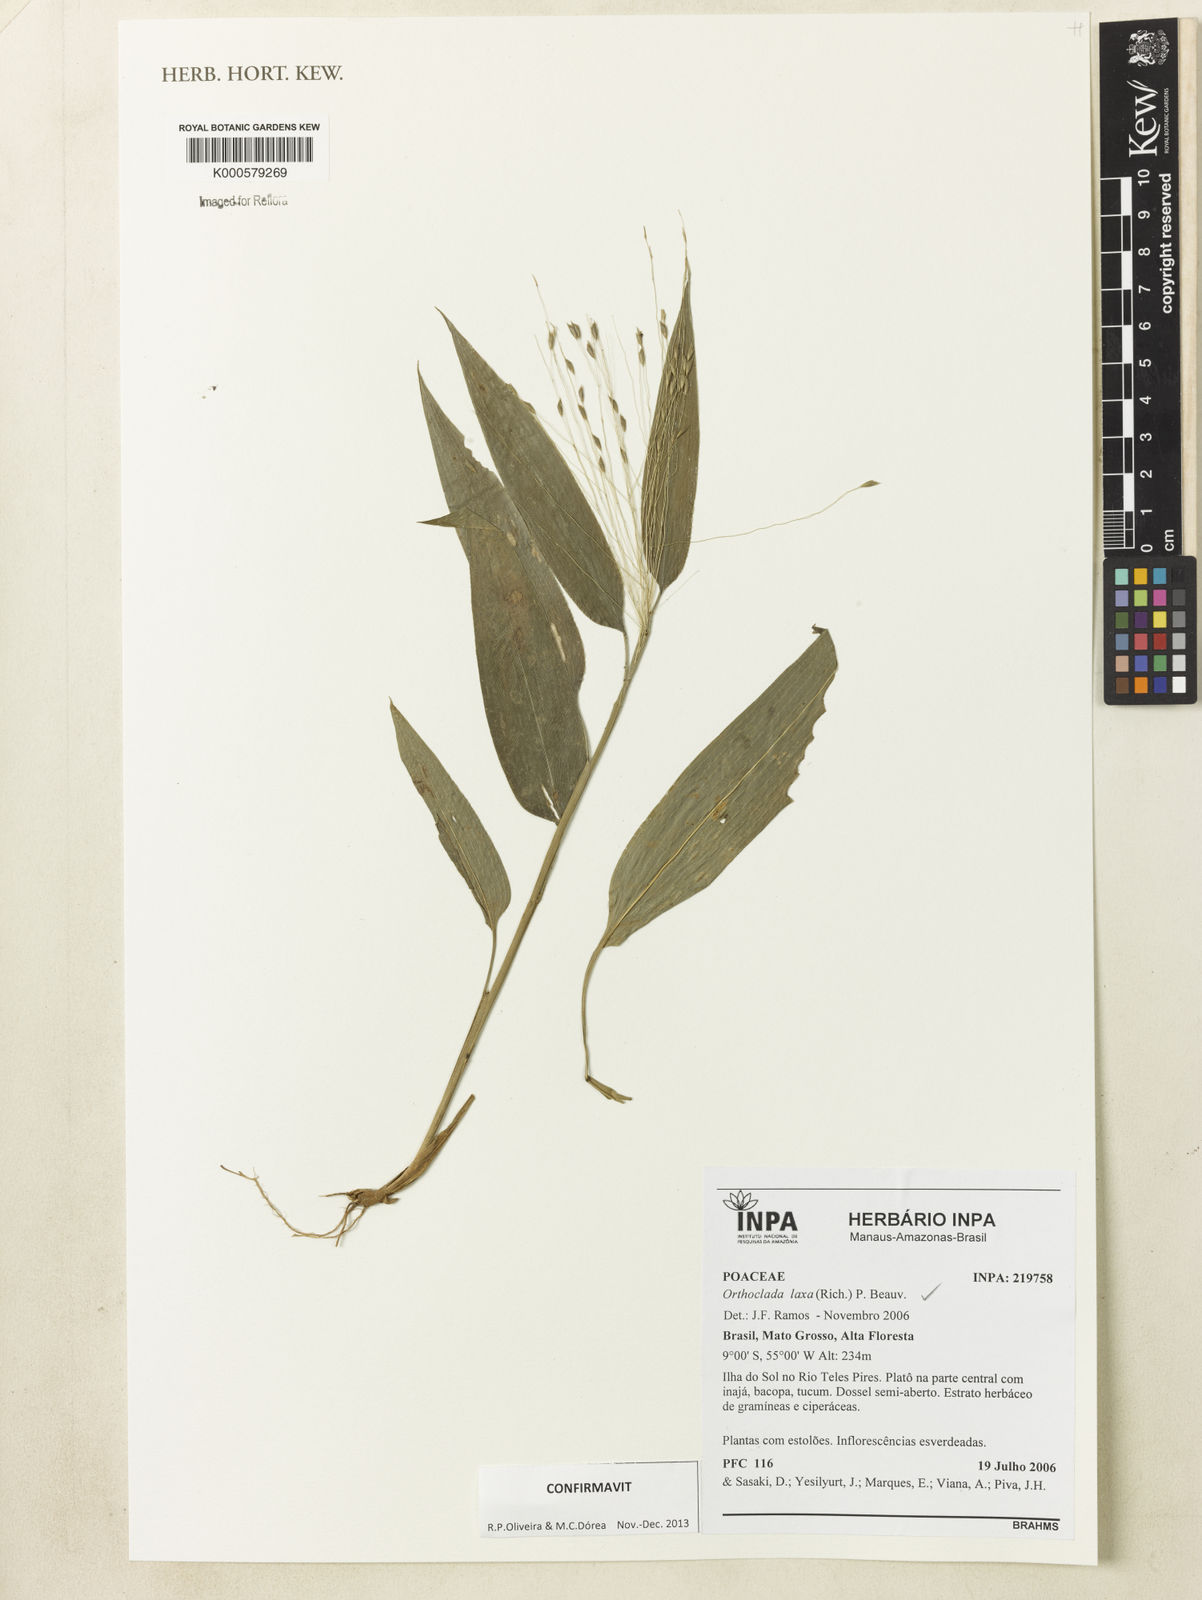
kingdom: Plantae
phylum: Tracheophyta
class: Liliopsida
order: Poales
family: Poaceae
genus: Orthoclada
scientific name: Orthoclada laxa
